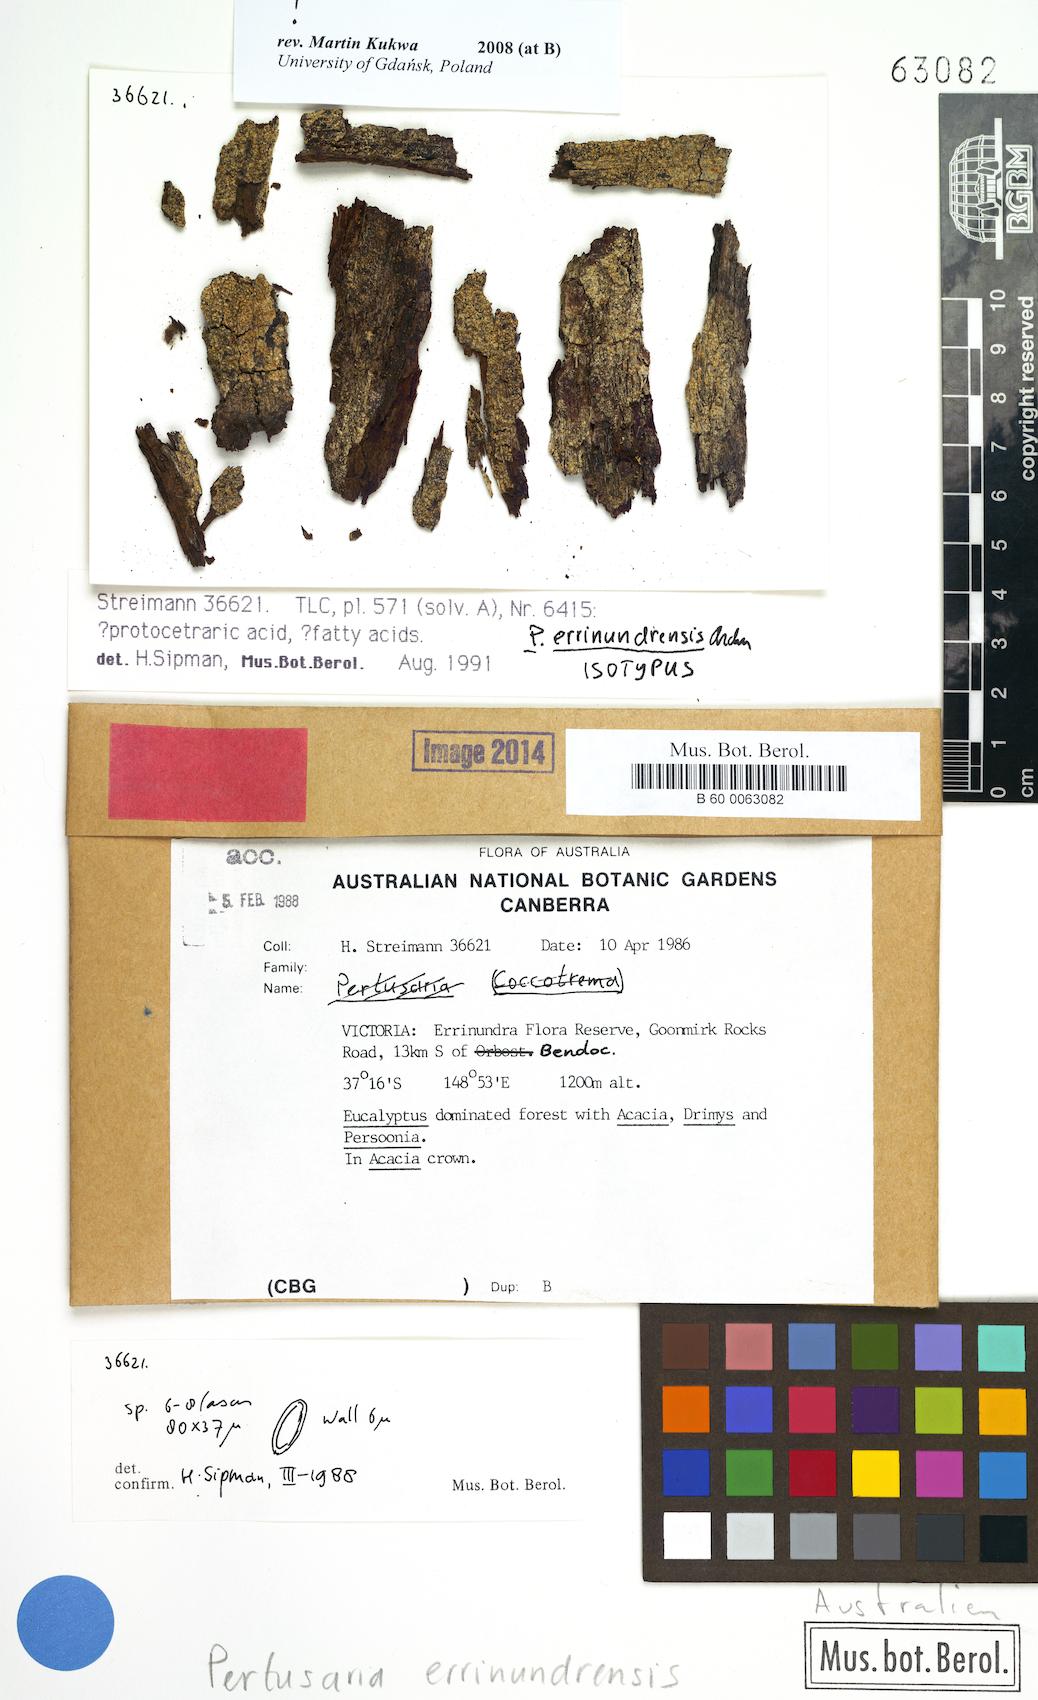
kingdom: Fungi
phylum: Ascomycota
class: Lecanoromycetes
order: Pertusariales
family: Pertusariaceae
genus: Pertusaria
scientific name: Pertusaria errinundrensis
